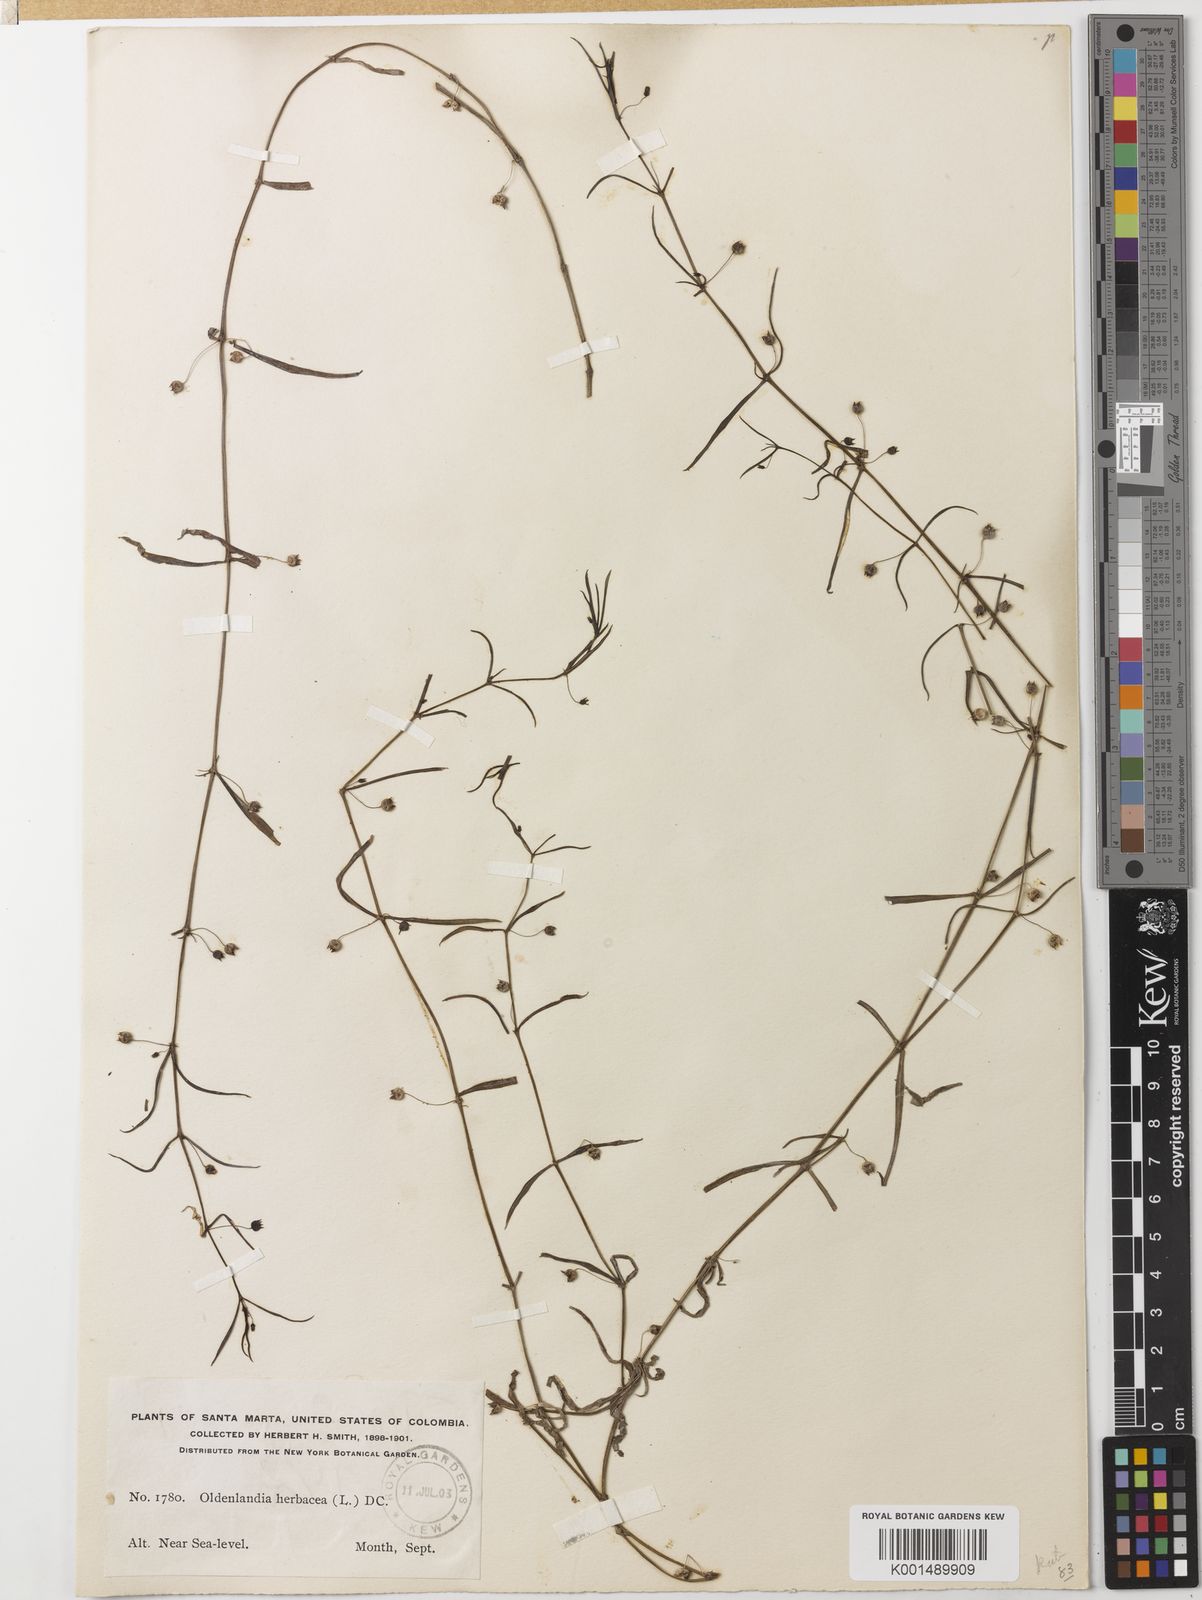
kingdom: Plantae
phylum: Tracheophyta
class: Magnoliopsida
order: Gentianales
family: Rubiaceae
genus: Oldenlandia
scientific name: Oldenlandia lancifolia
